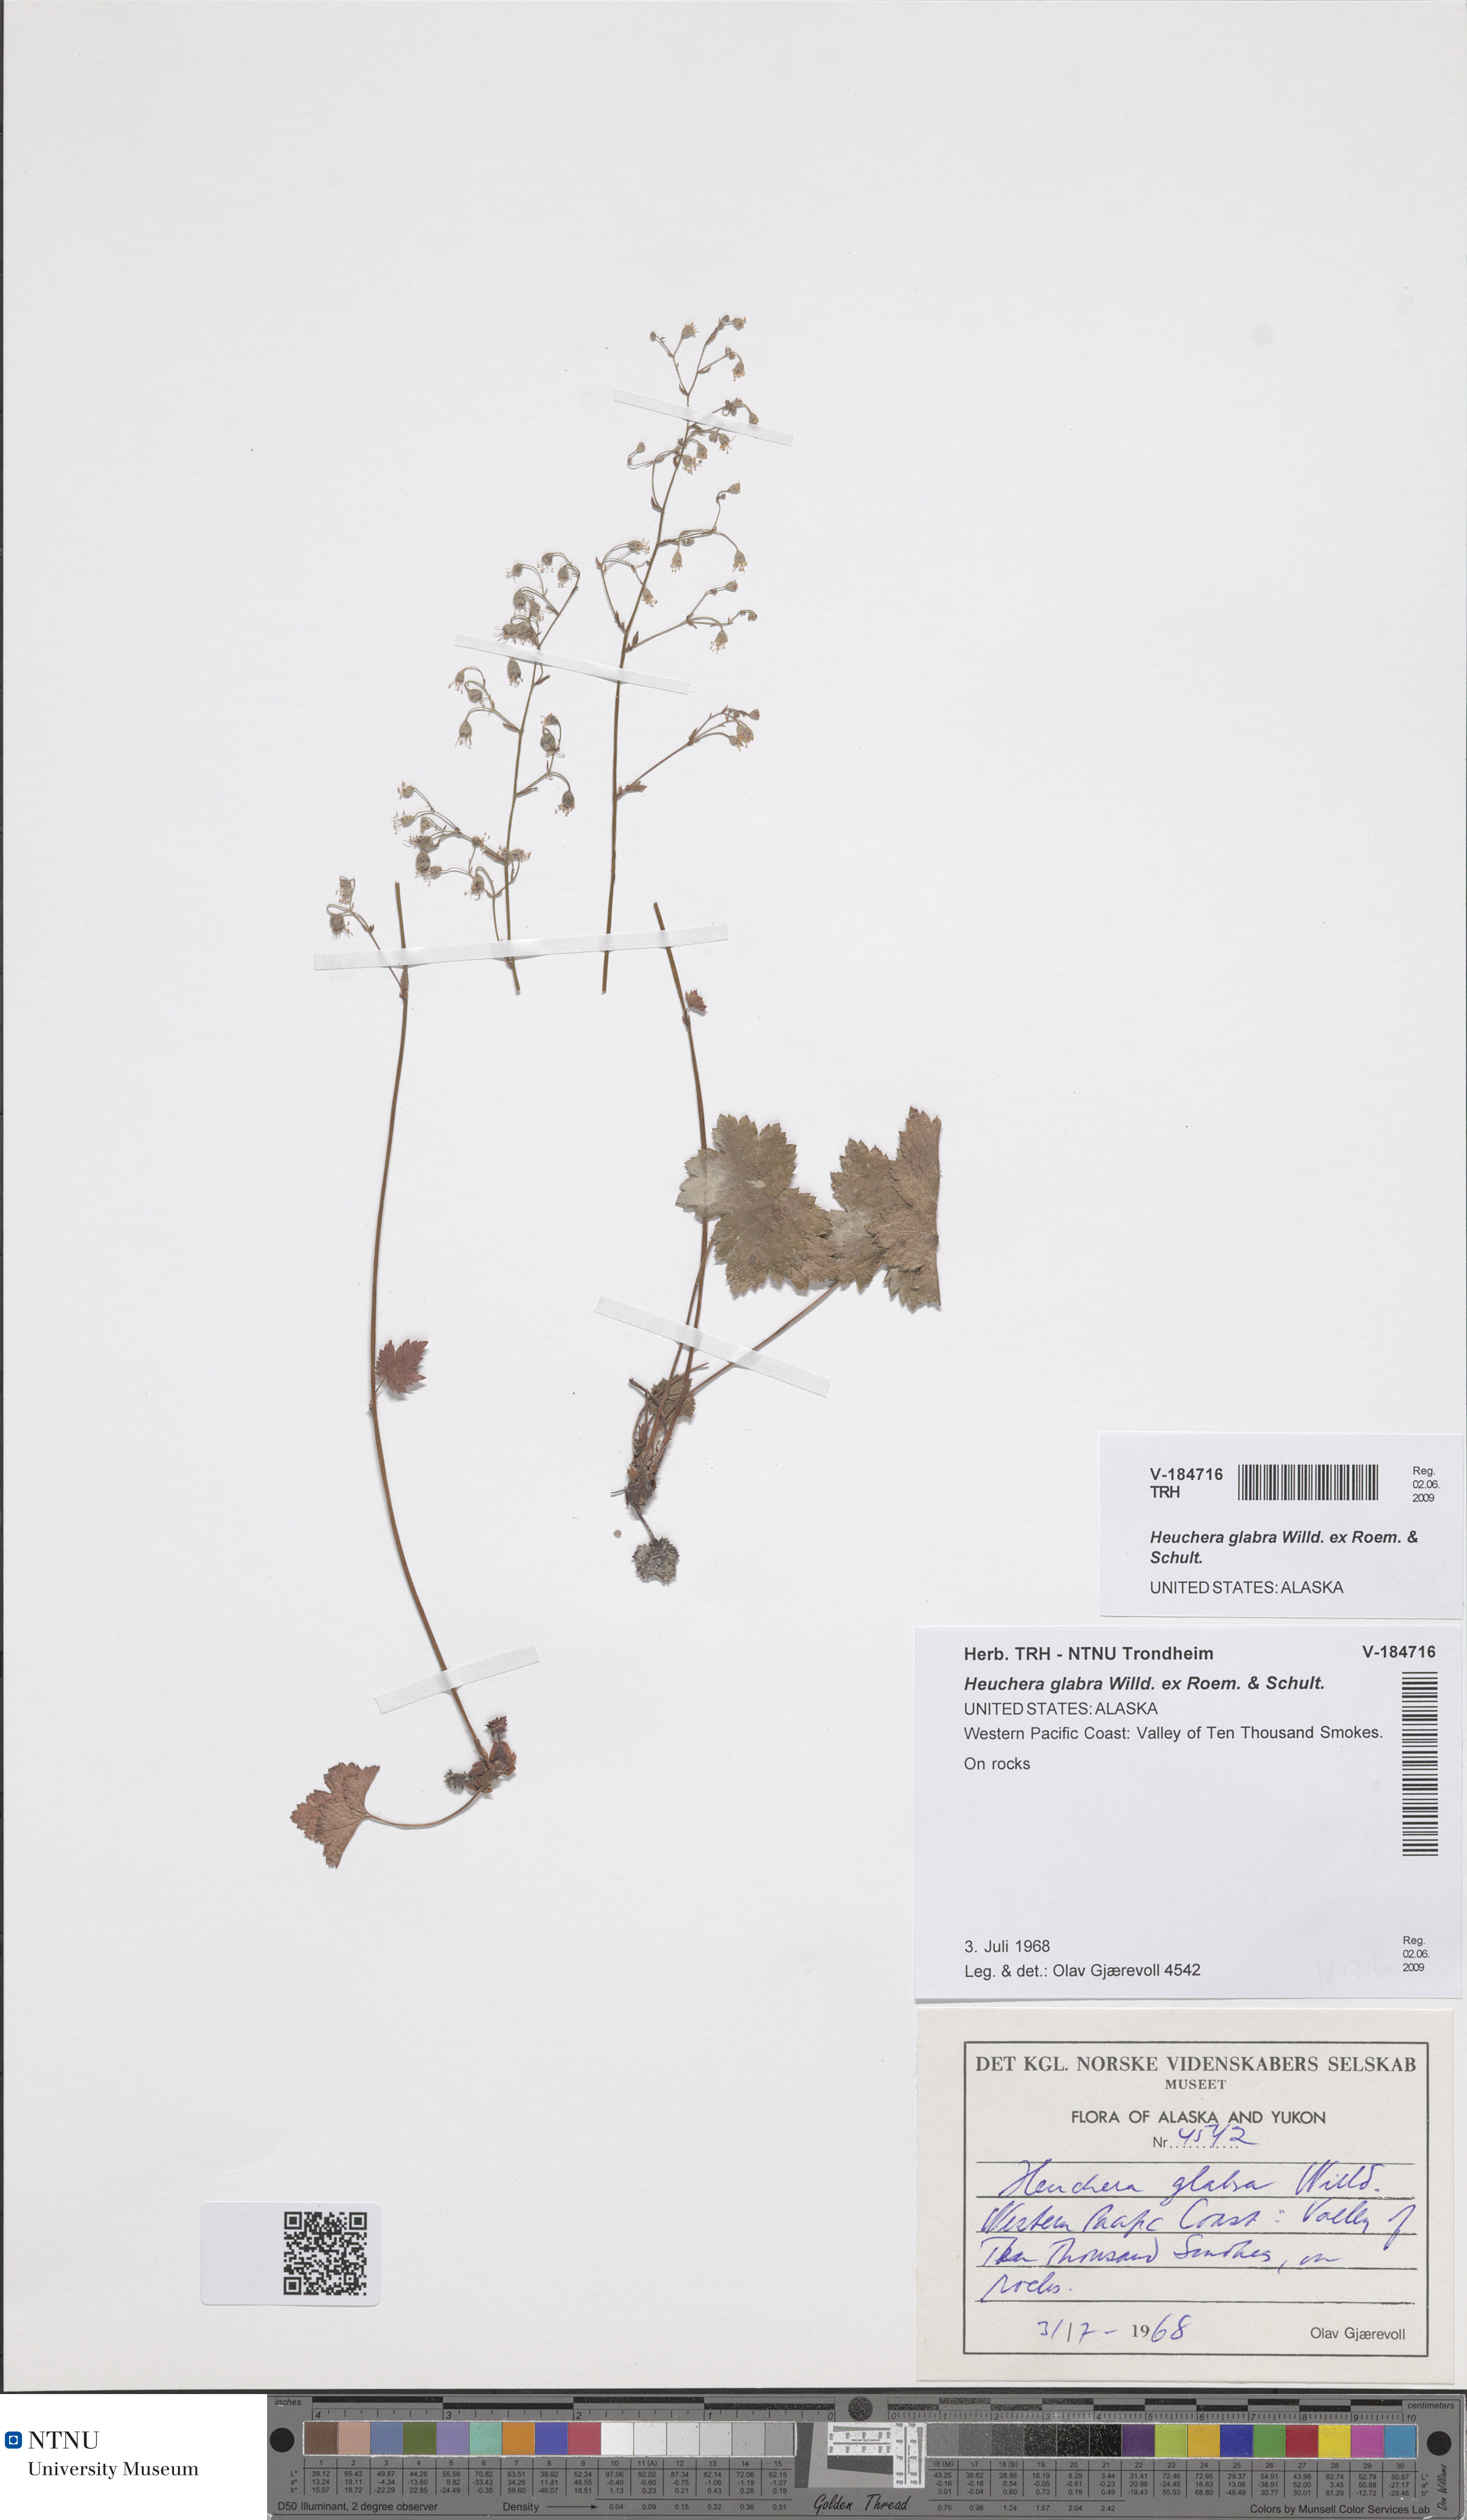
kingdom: Plantae
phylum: Tracheophyta
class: Magnoliopsida
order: Saxifragales
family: Saxifragaceae
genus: Heuchera
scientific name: Heuchera glabra
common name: Alpine alumroot
